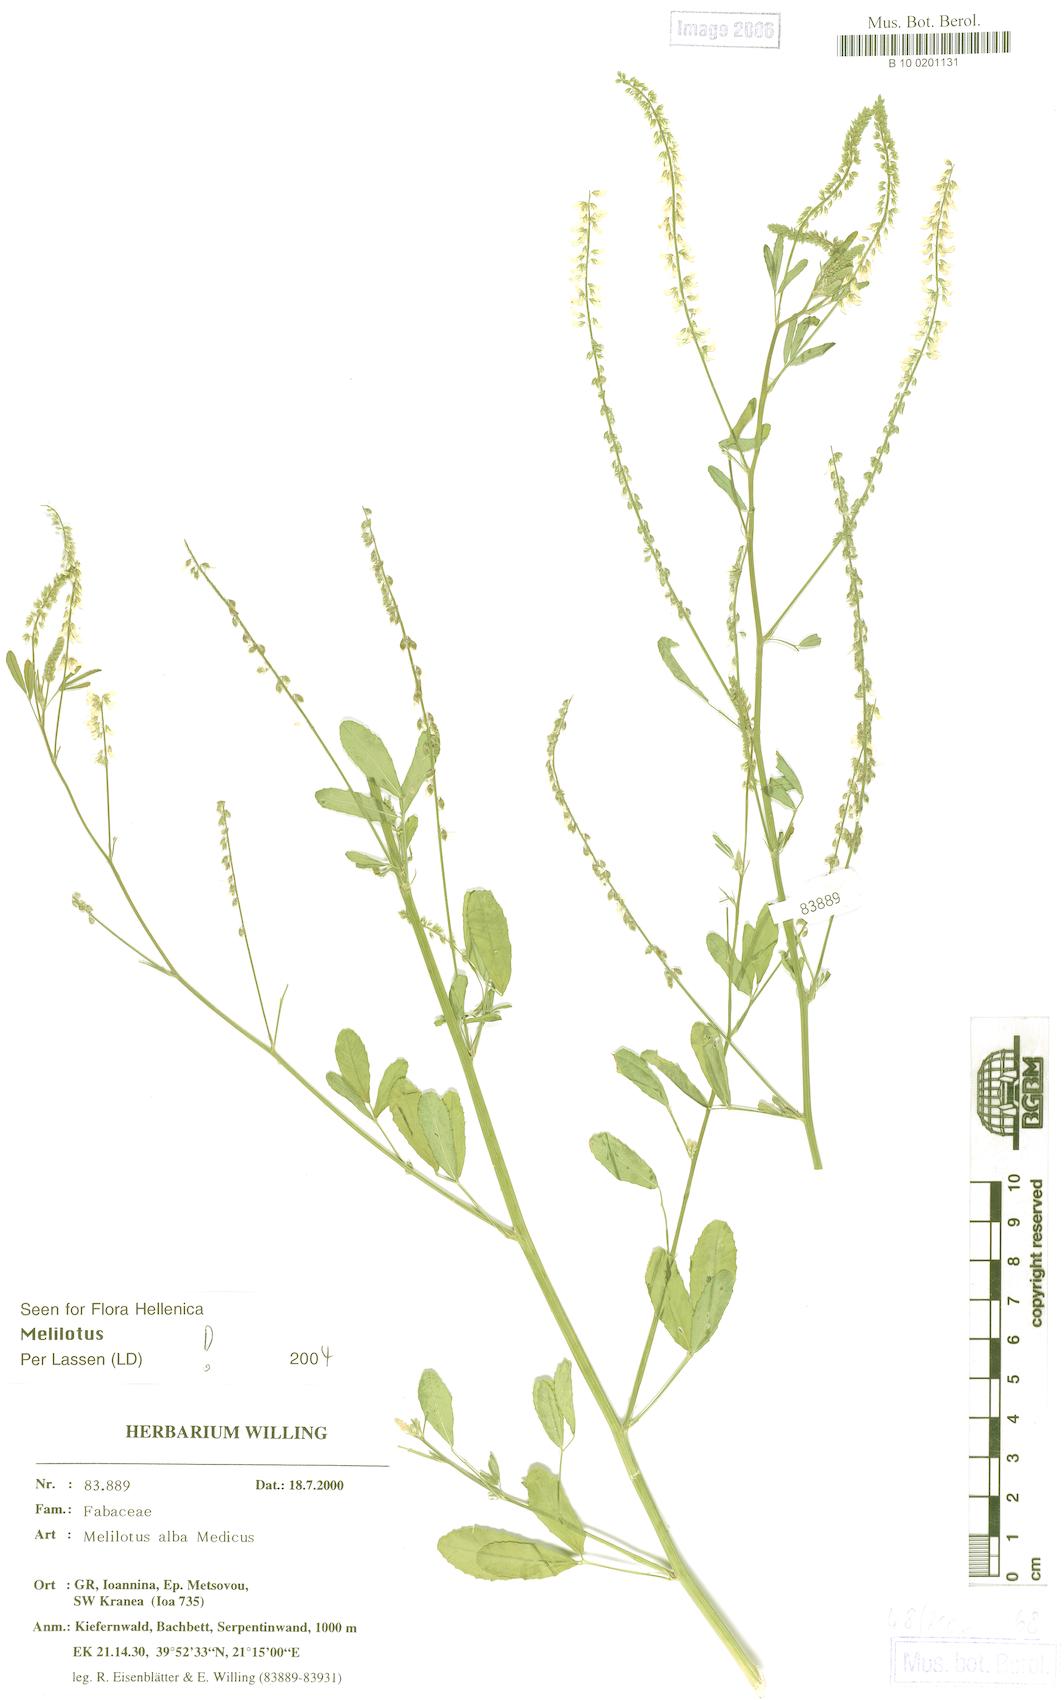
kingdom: Plantae
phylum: Tracheophyta
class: Magnoliopsida
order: Fabales
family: Fabaceae
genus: Melilotus
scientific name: Melilotus albus
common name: White melilot
